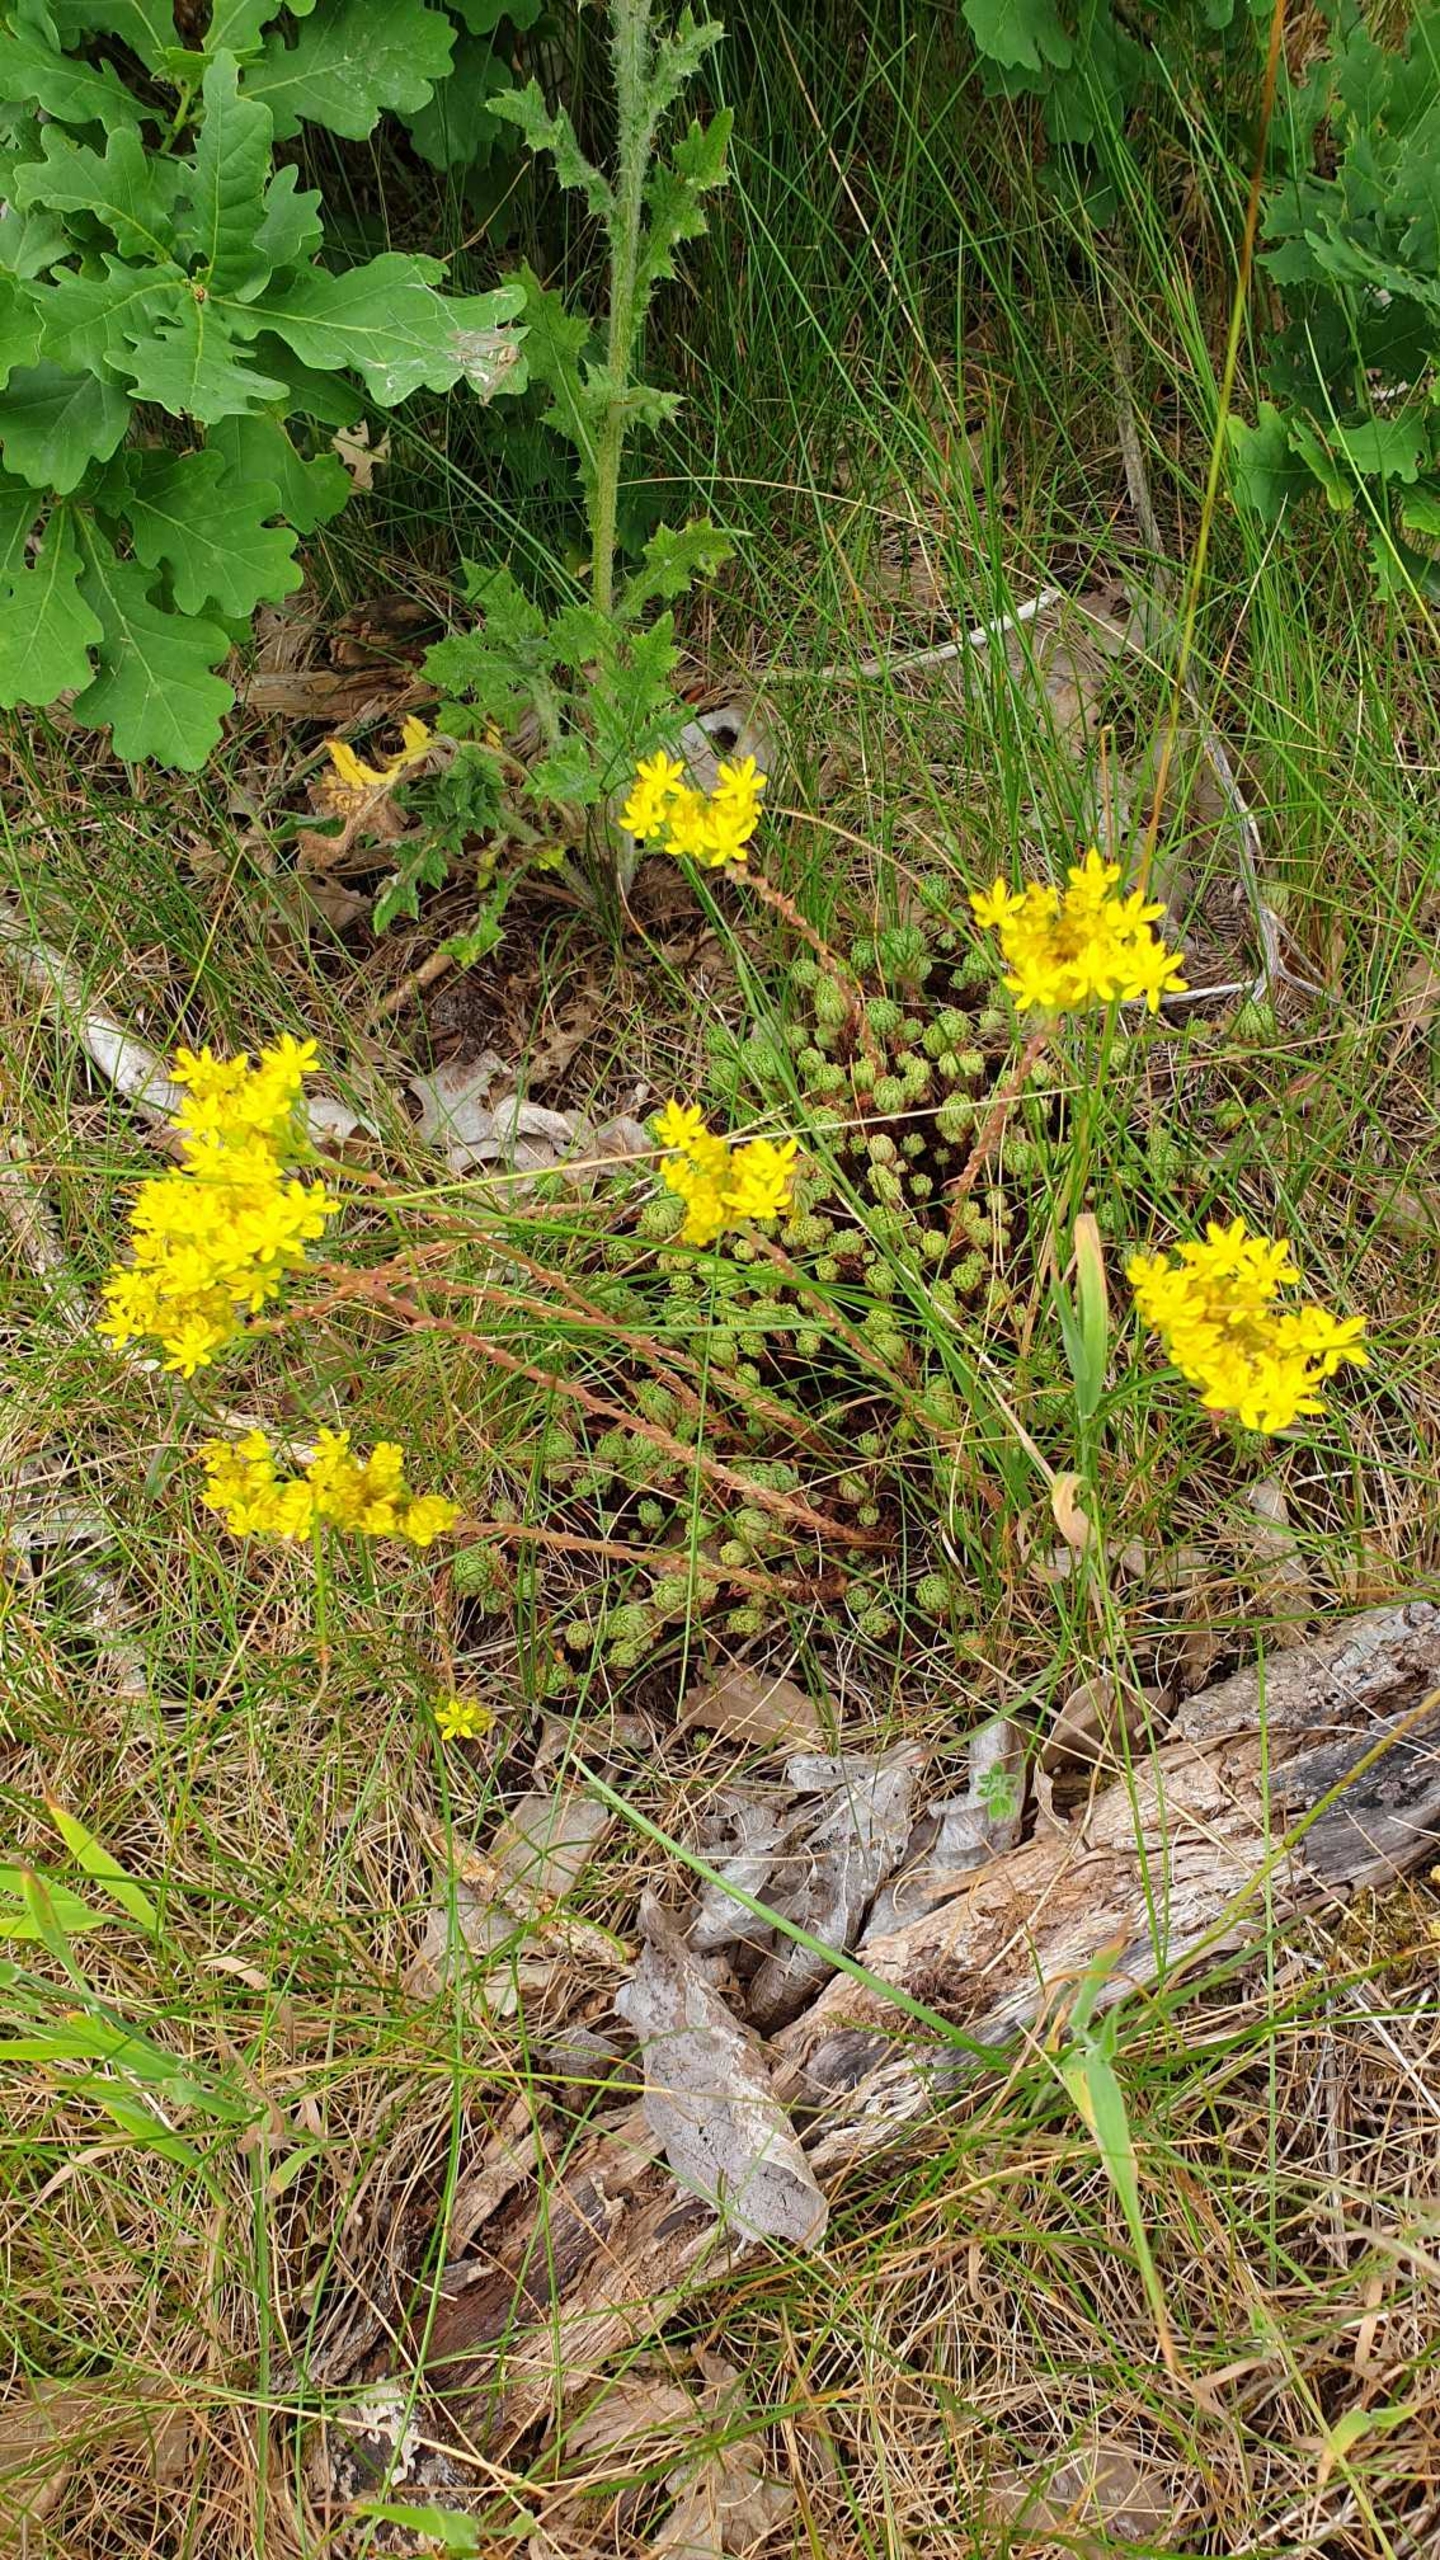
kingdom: Plantae
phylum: Tracheophyta
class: Magnoliopsida
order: Saxifragales
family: Crassulaceae
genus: Sedum
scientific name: Sedum acre
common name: Bidende stenurt
